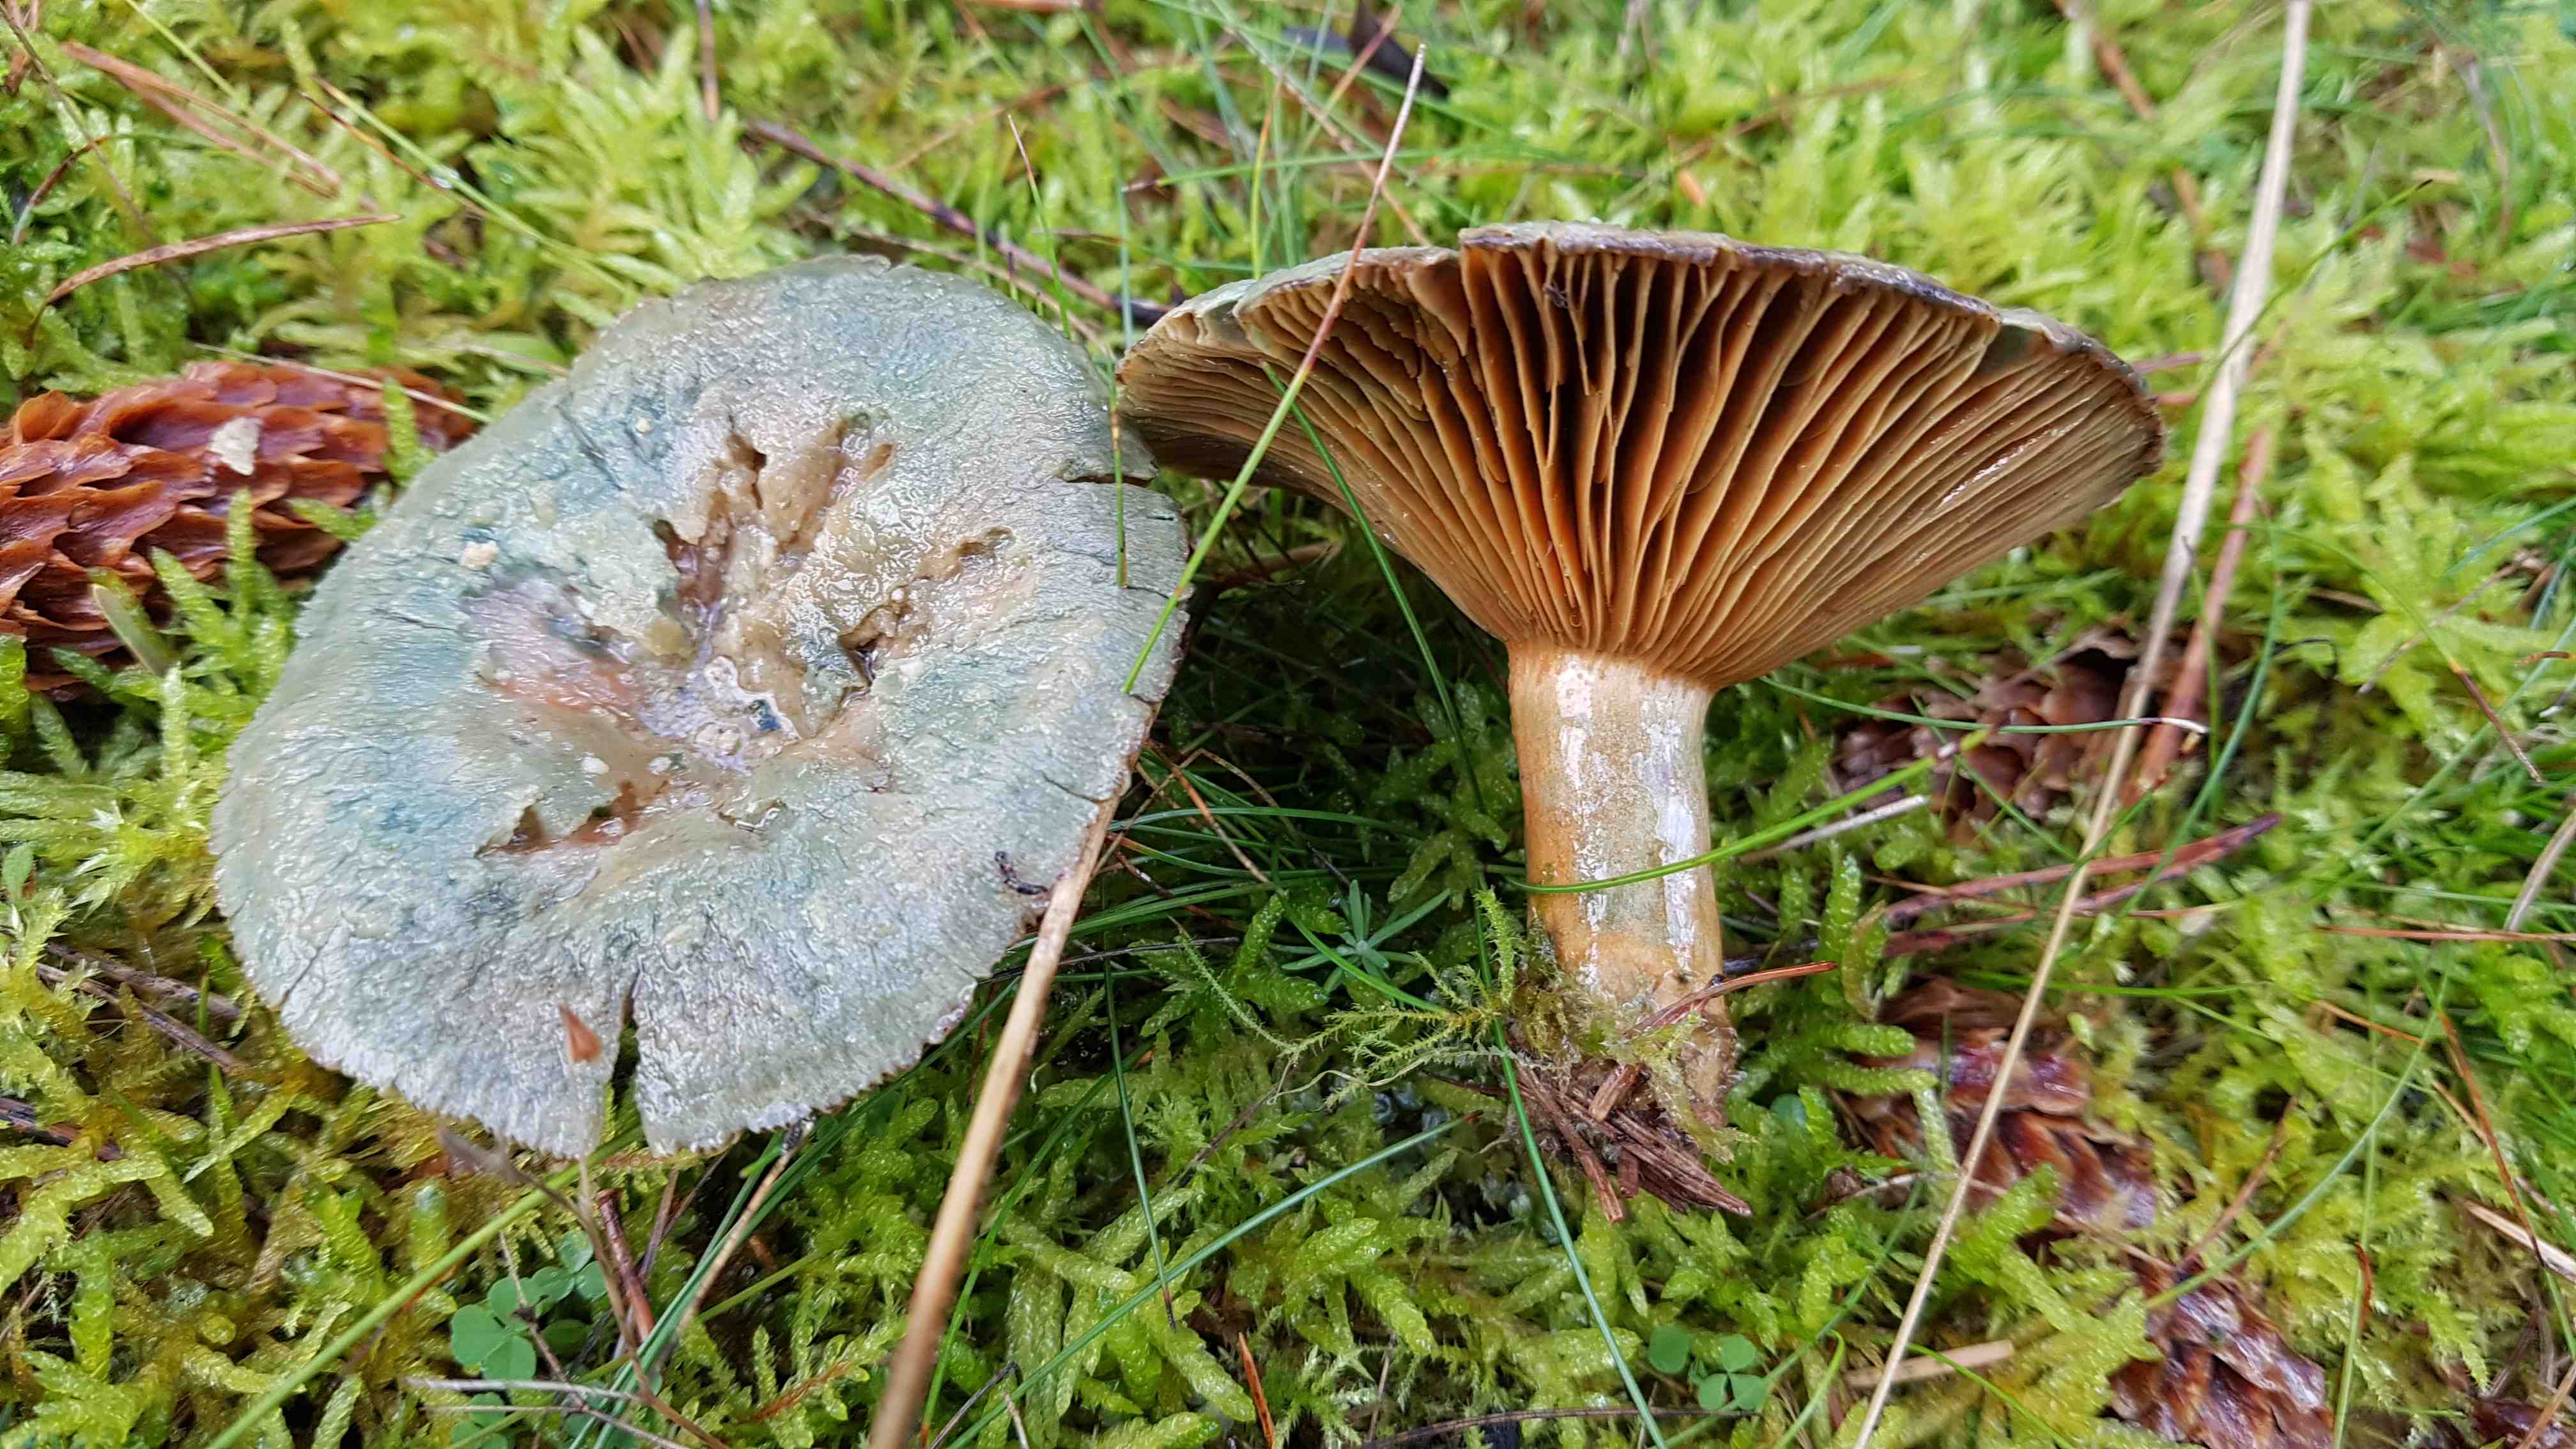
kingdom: Fungi
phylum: Basidiomycota
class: Agaricomycetes
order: Russulales
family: Russulaceae
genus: Lactarius
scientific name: Lactarius deterrimus
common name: gran-mælkehat
